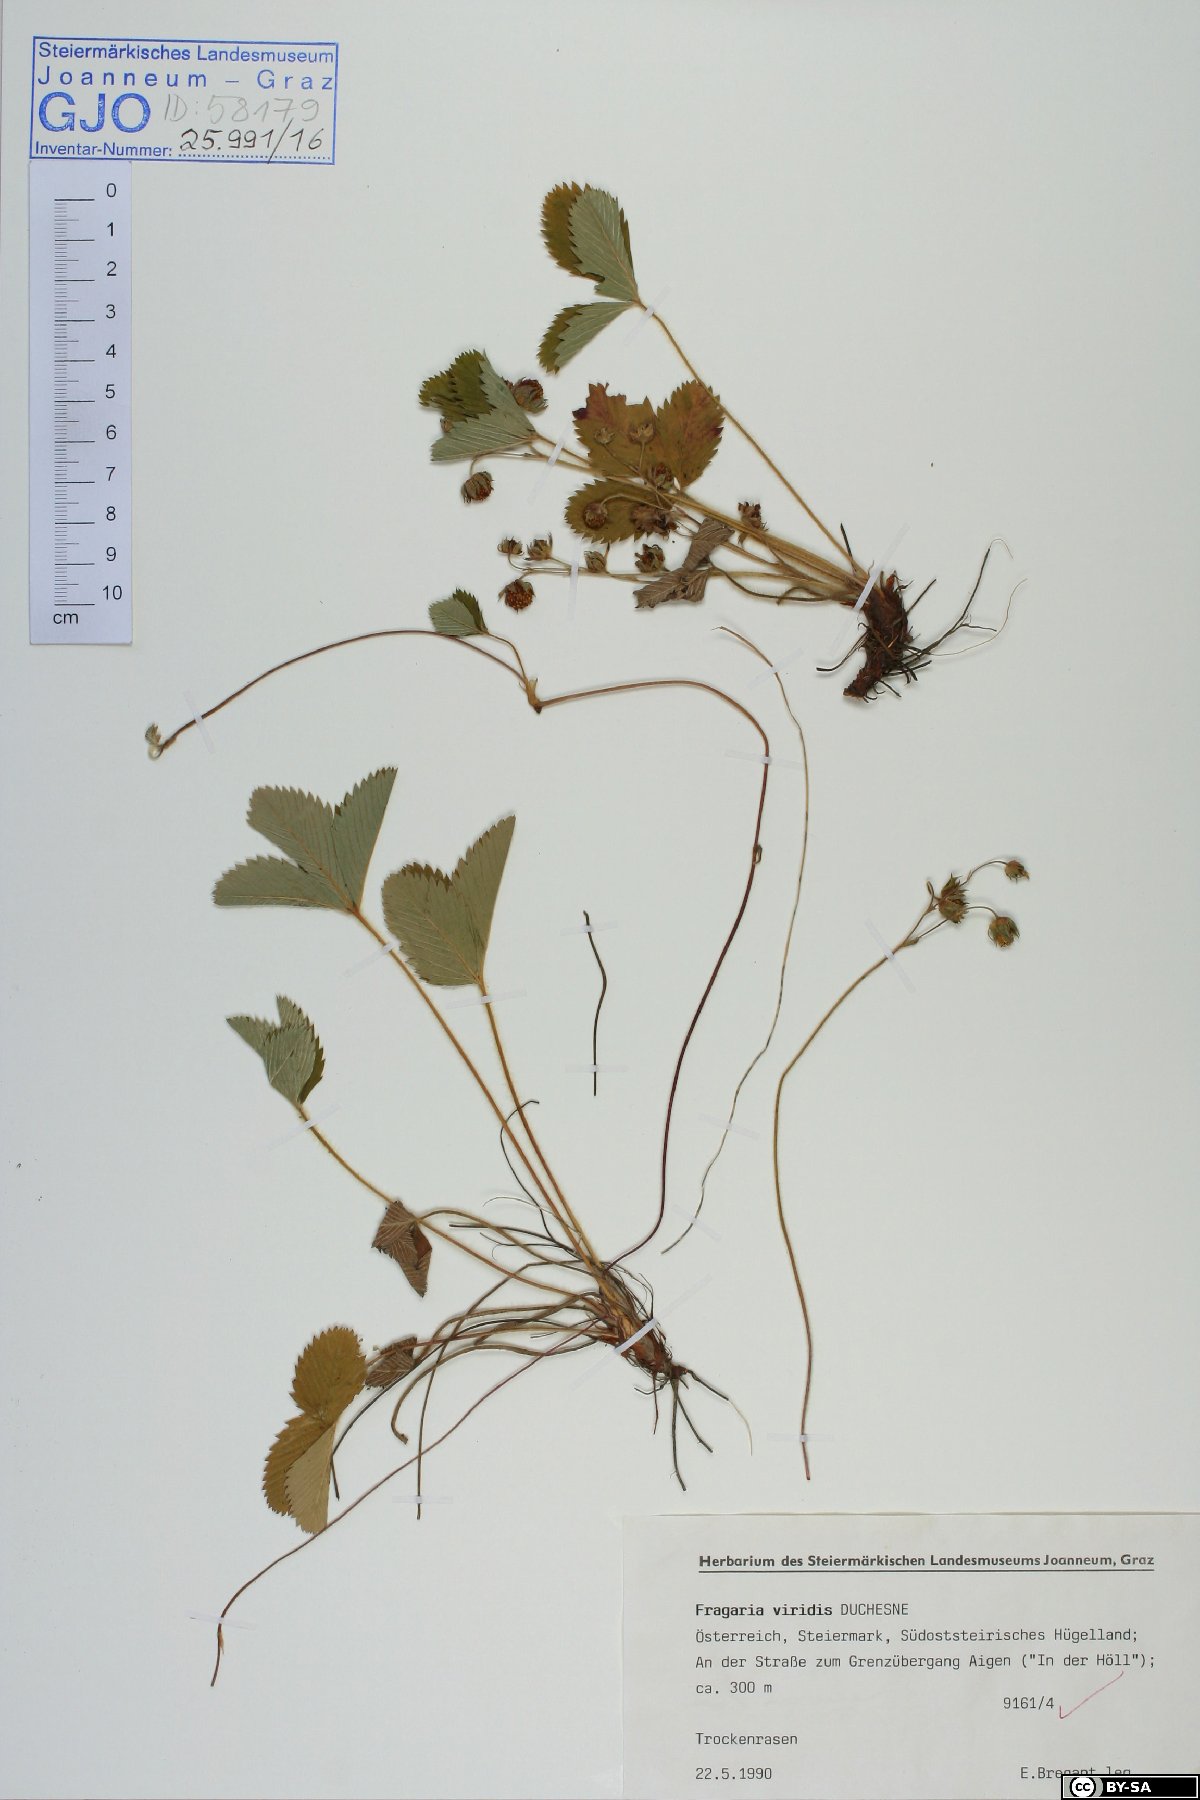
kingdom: Plantae
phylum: Tracheophyta
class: Magnoliopsida
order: Rosales
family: Rosaceae
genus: Fragaria
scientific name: Fragaria viridis
